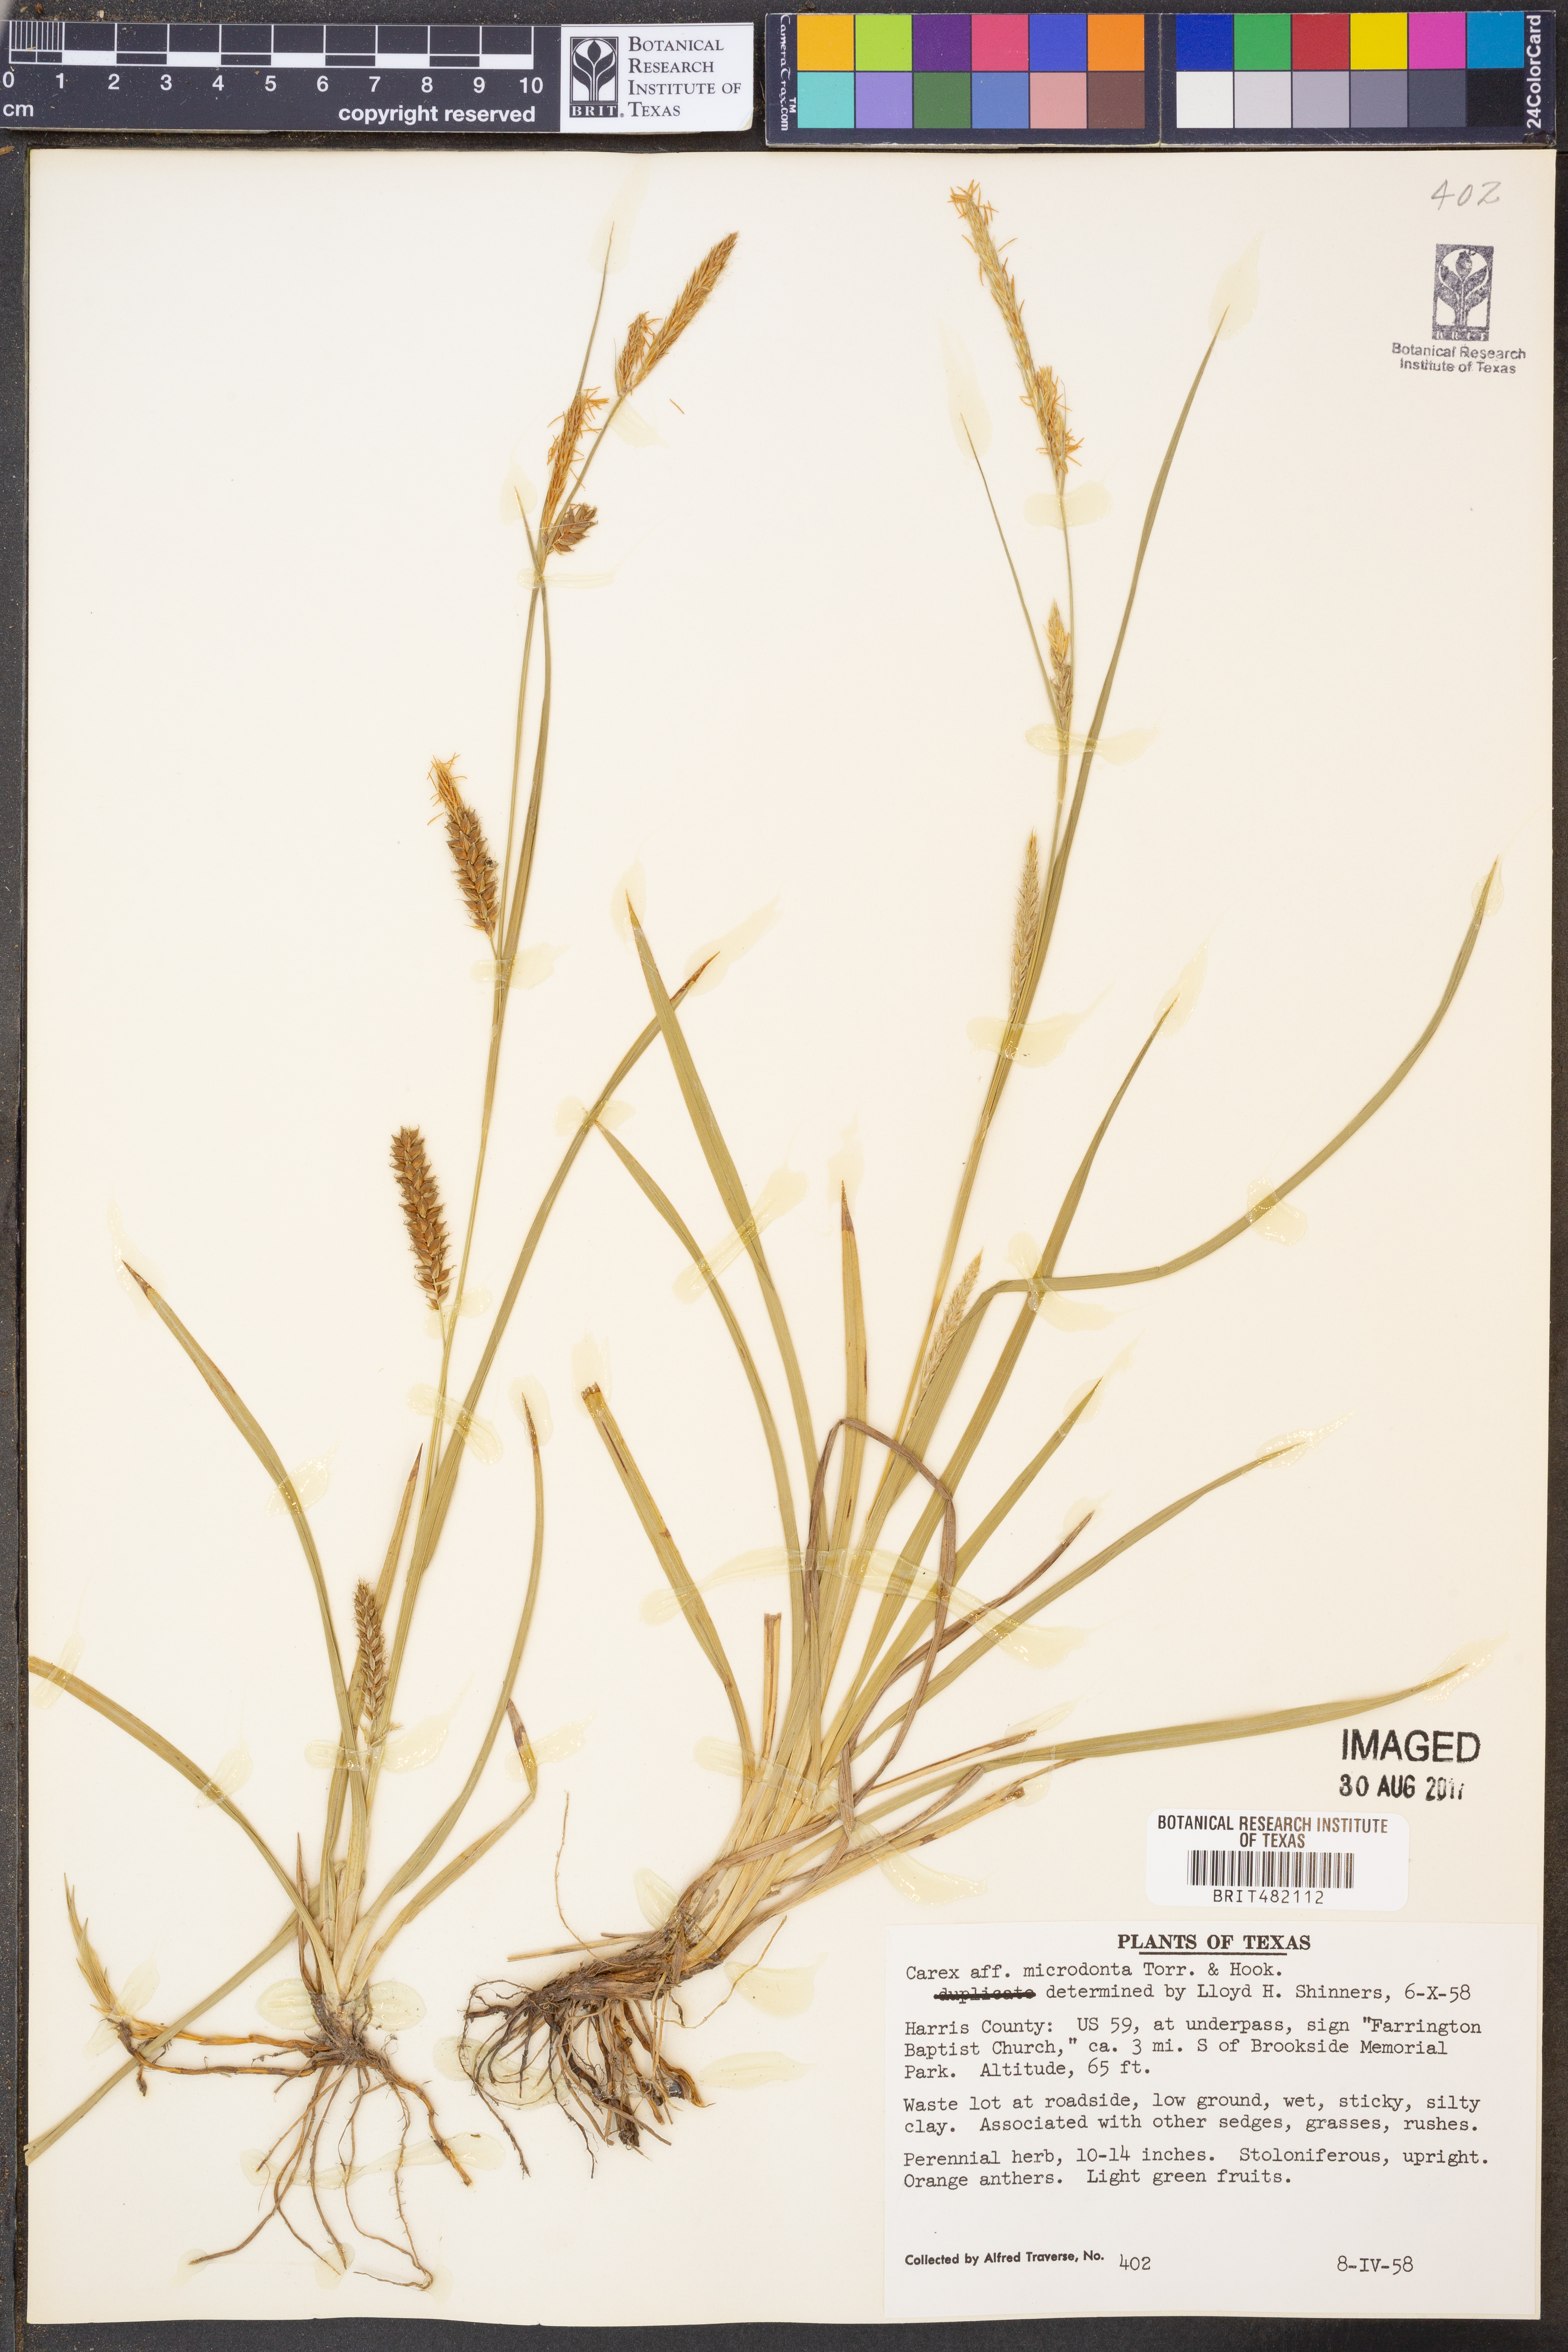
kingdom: Plantae
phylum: Tracheophyta
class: Liliopsida
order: Poales
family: Cyperaceae
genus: Carex
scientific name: Carex microdonta
